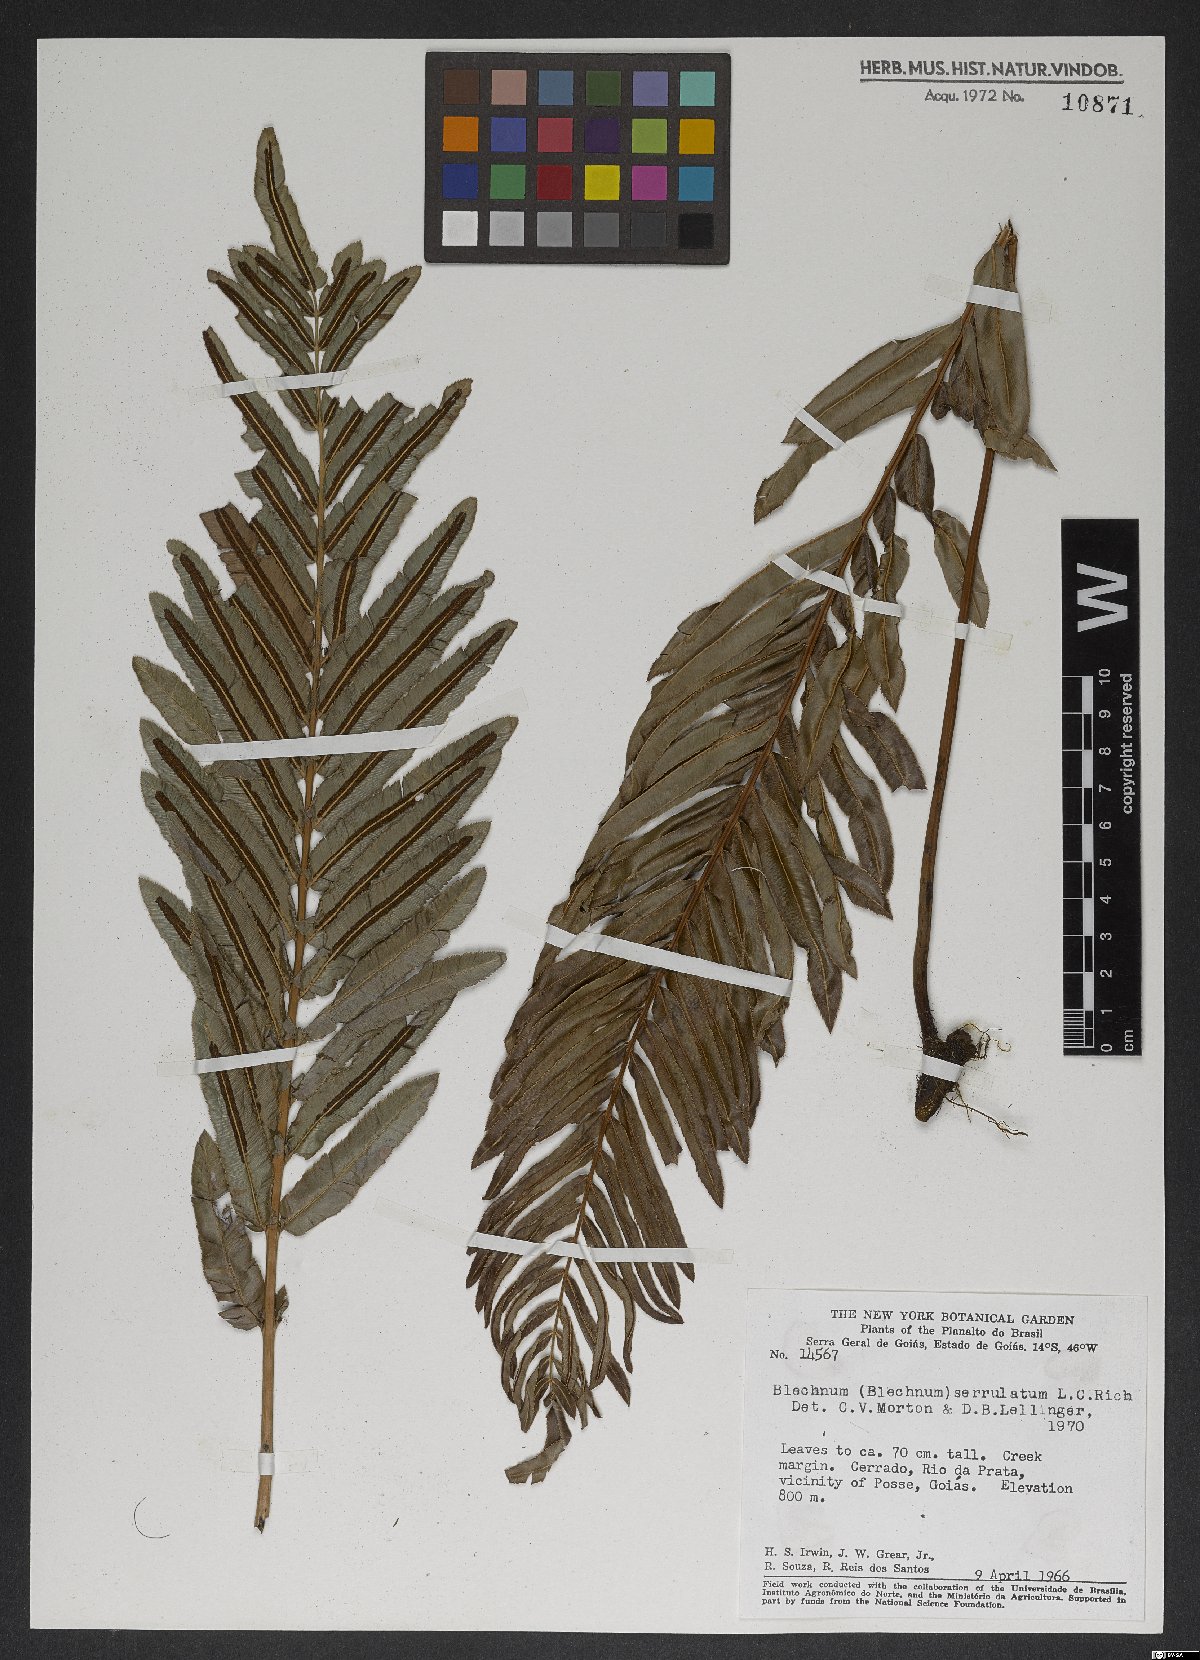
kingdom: Plantae
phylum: Tracheophyta
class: Polypodiopsida
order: Polypodiales
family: Blechnaceae
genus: Telmatoblechnum
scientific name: Telmatoblechnum serrulatum
